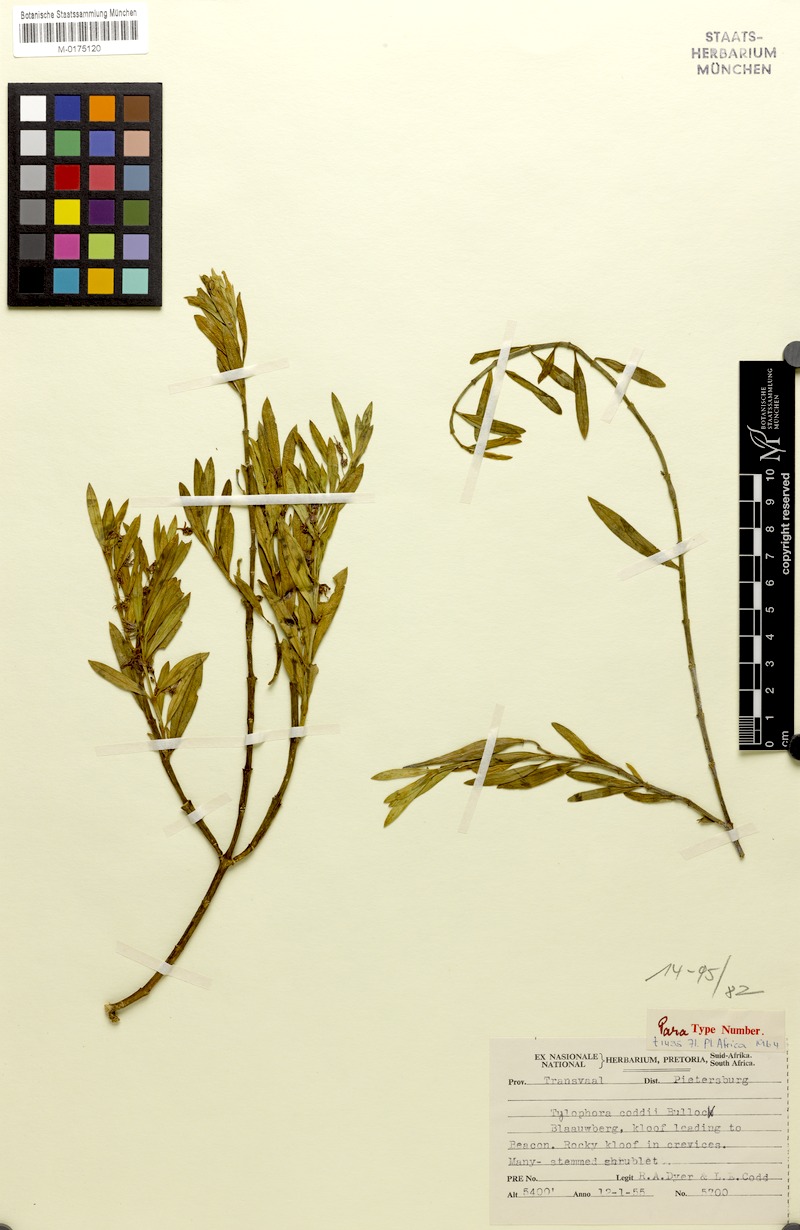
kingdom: Plantae
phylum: Tracheophyta
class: Magnoliopsida
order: Gentianales
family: Apocynaceae
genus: Vincetoxicum
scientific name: Vincetoxicum coddii
